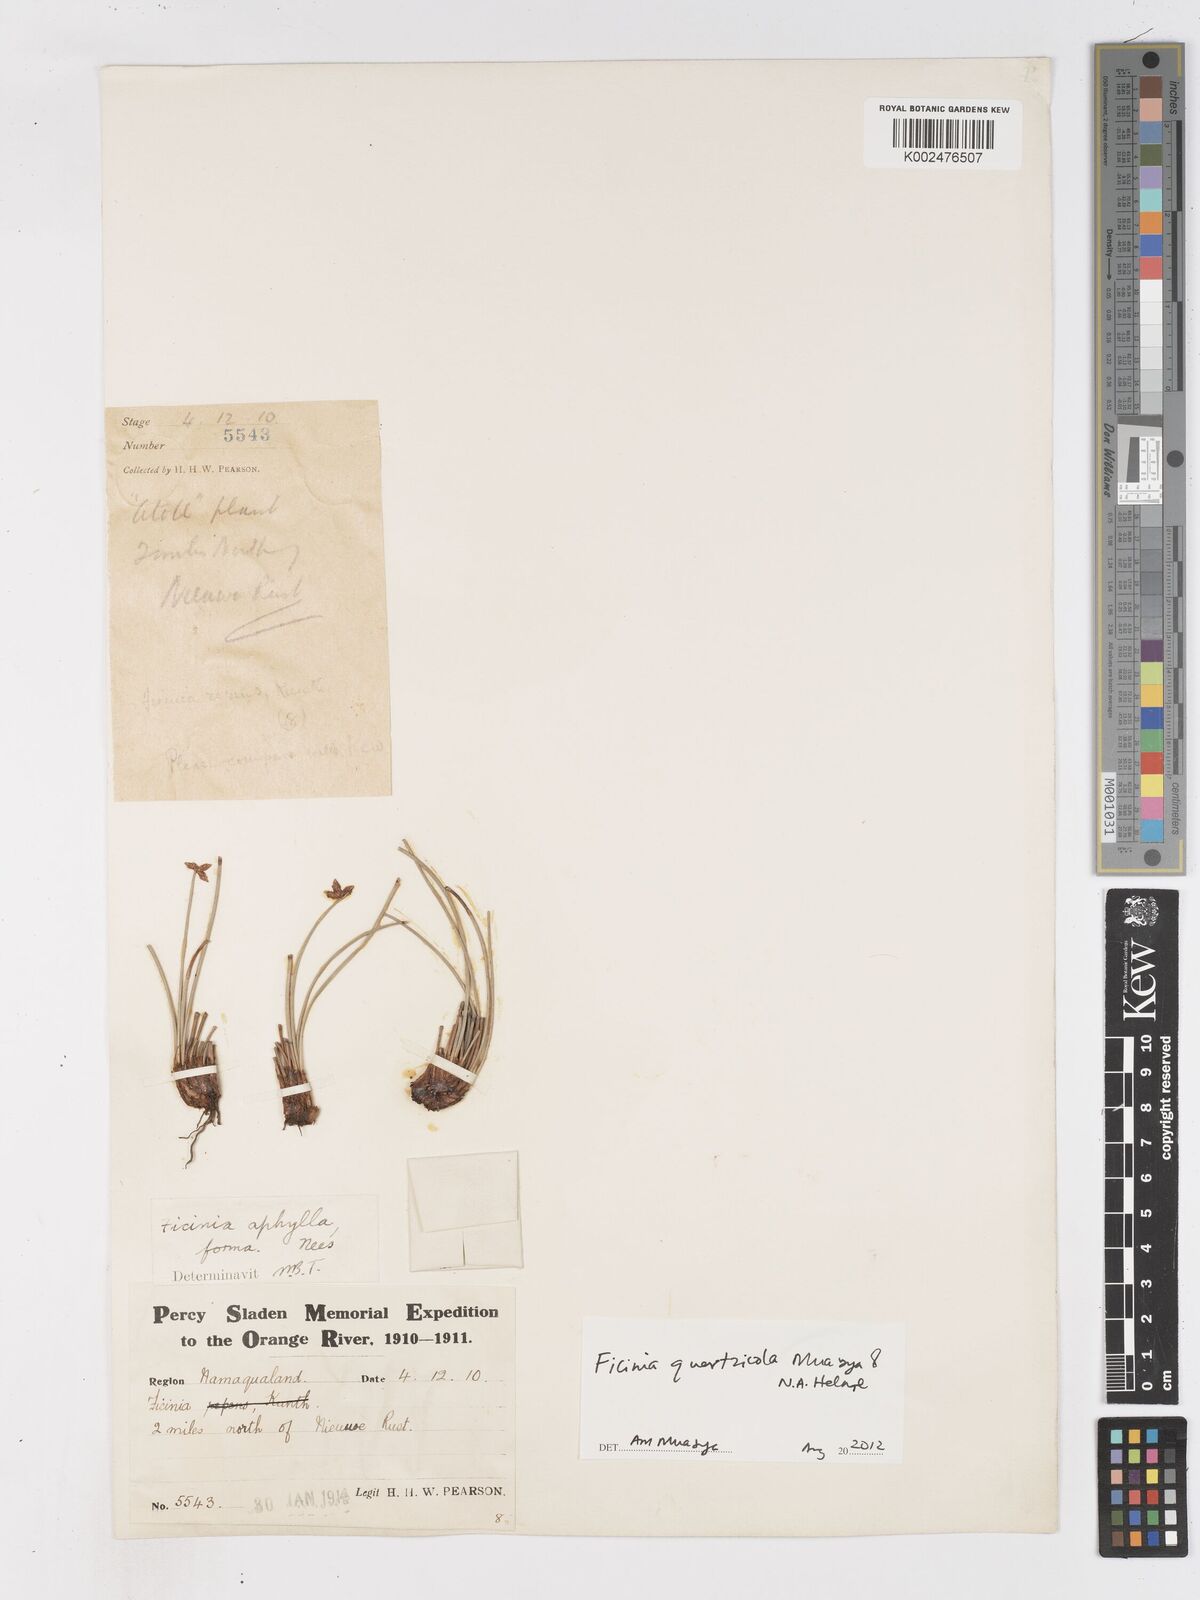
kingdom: Plantae
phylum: Tracheophyta
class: Liliopsida
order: Poales
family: Cyperaceae
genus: Ficinia
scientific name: Ficinia quartzicola
